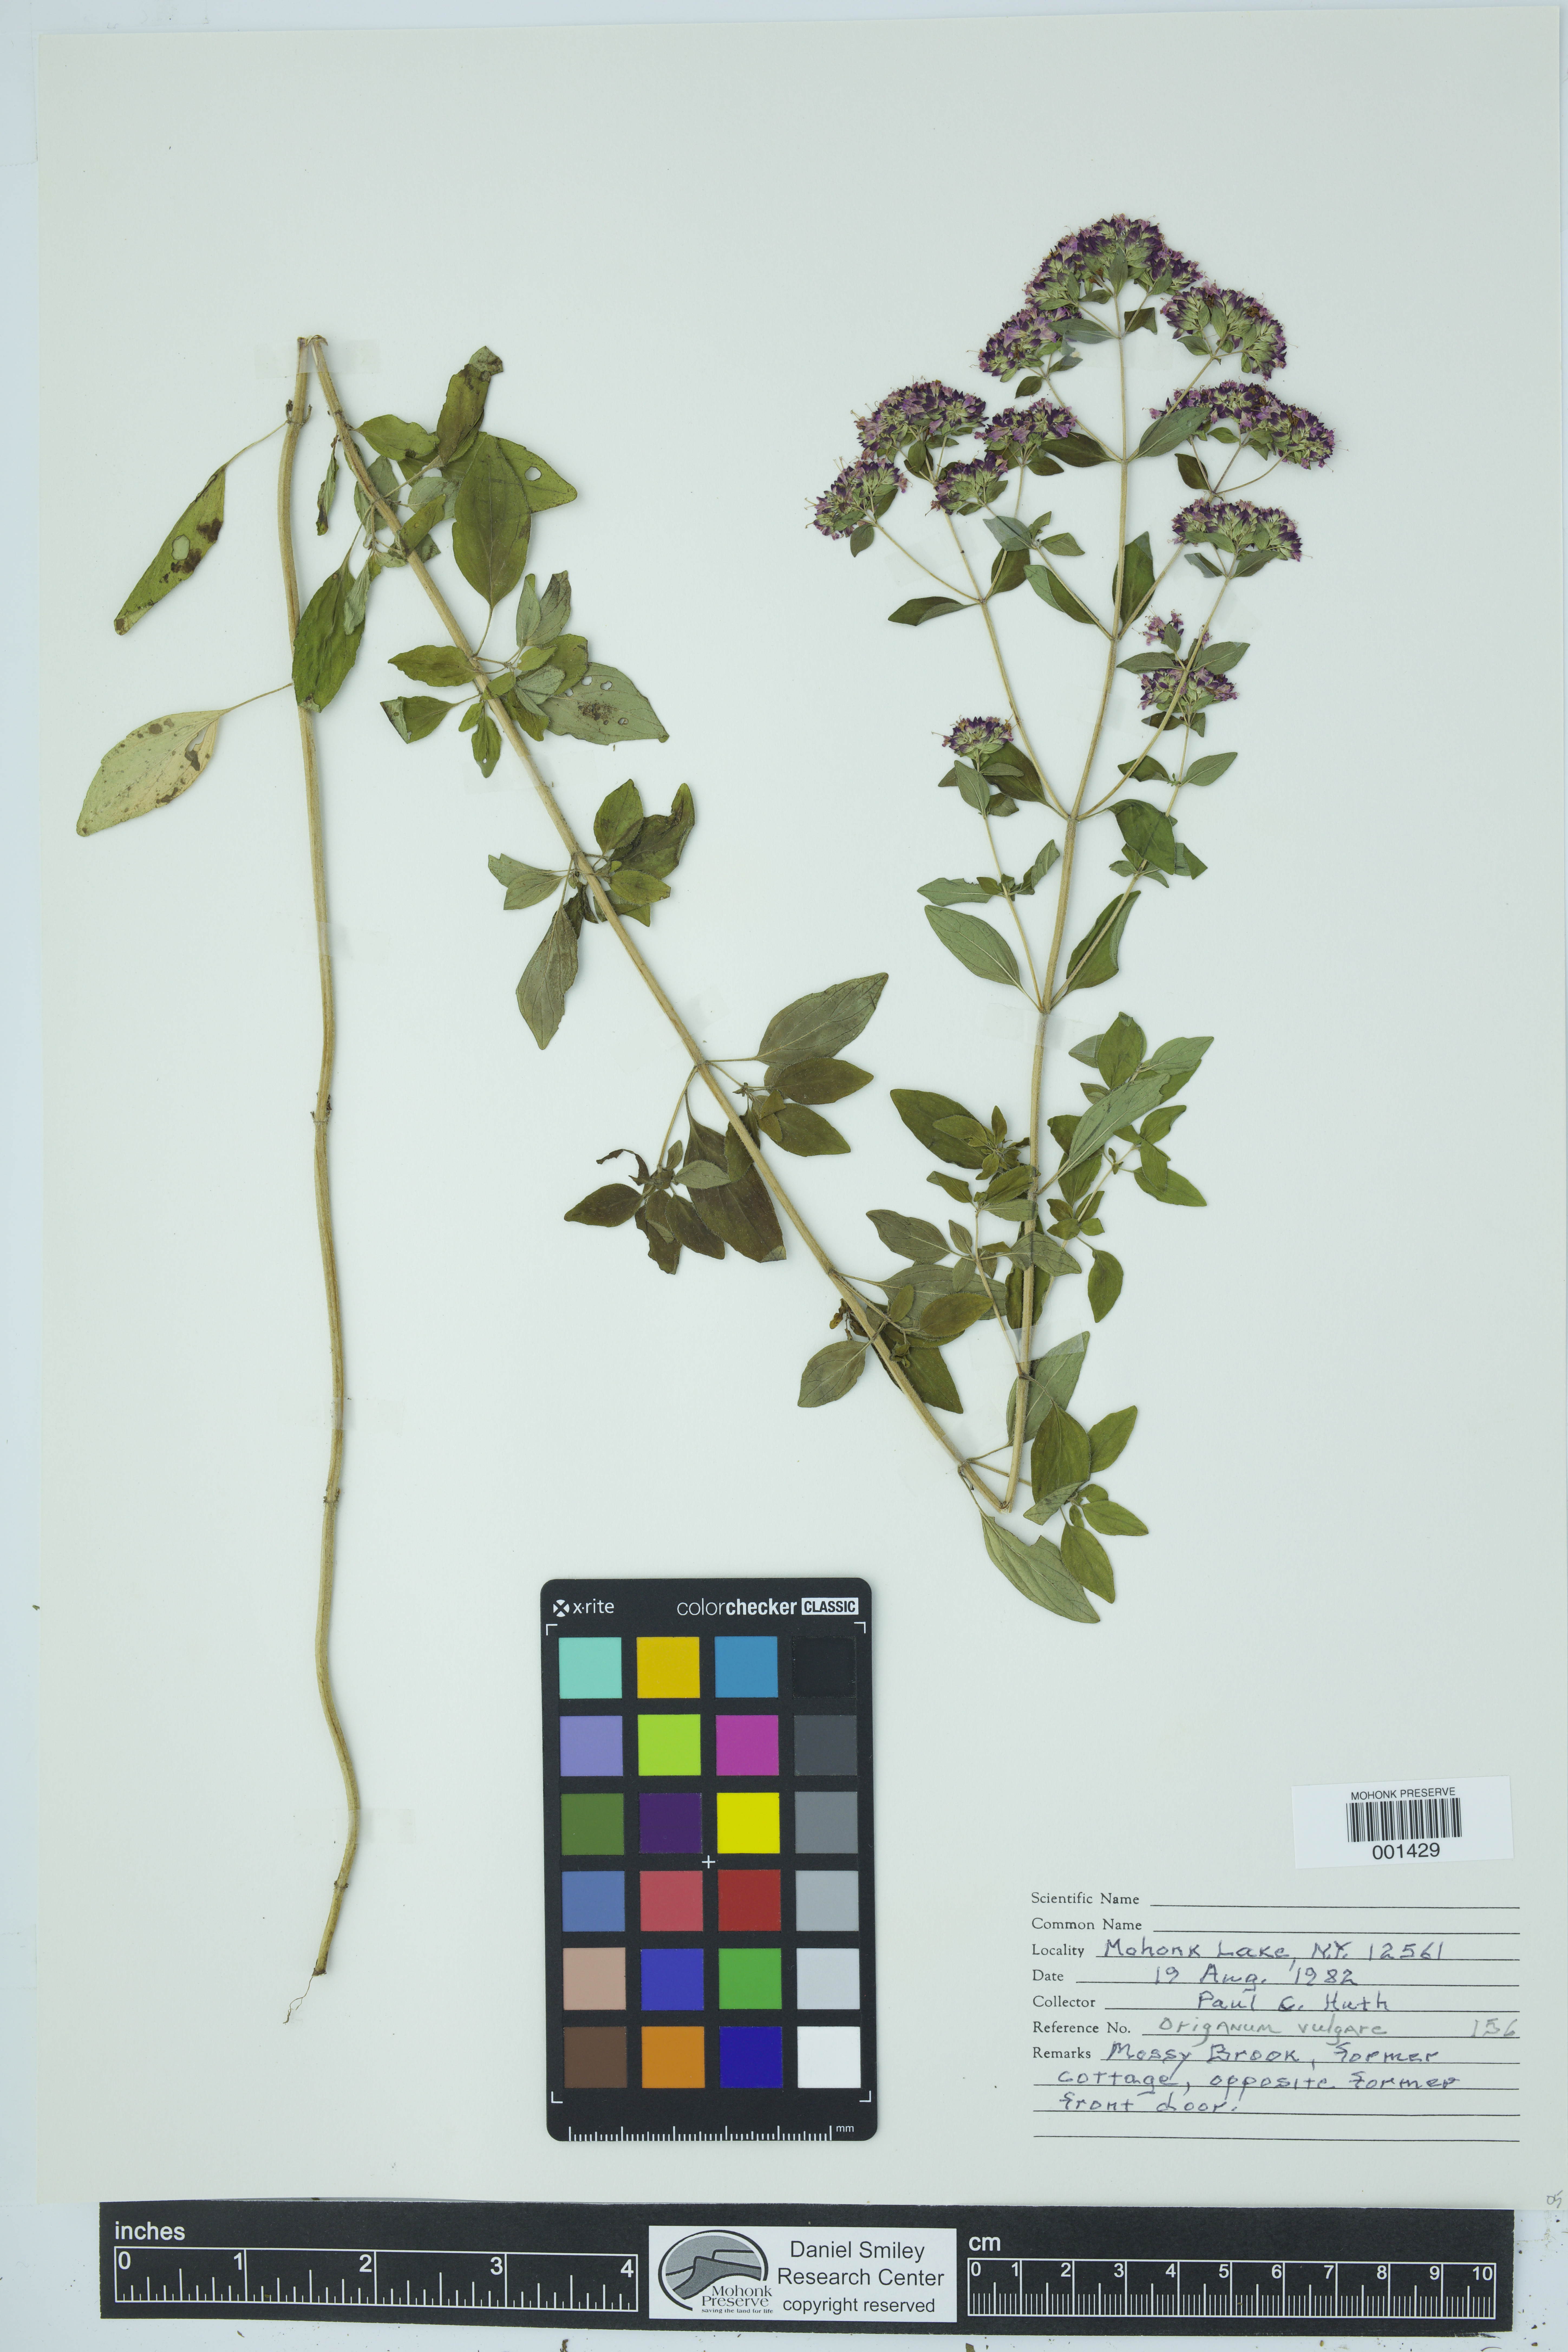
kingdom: Plantae
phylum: Tracheophyta
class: Magnoliopsida
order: Lamiales
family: Lamiaceae
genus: Origanum
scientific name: Origanum vulgare
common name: Wild marjoram
